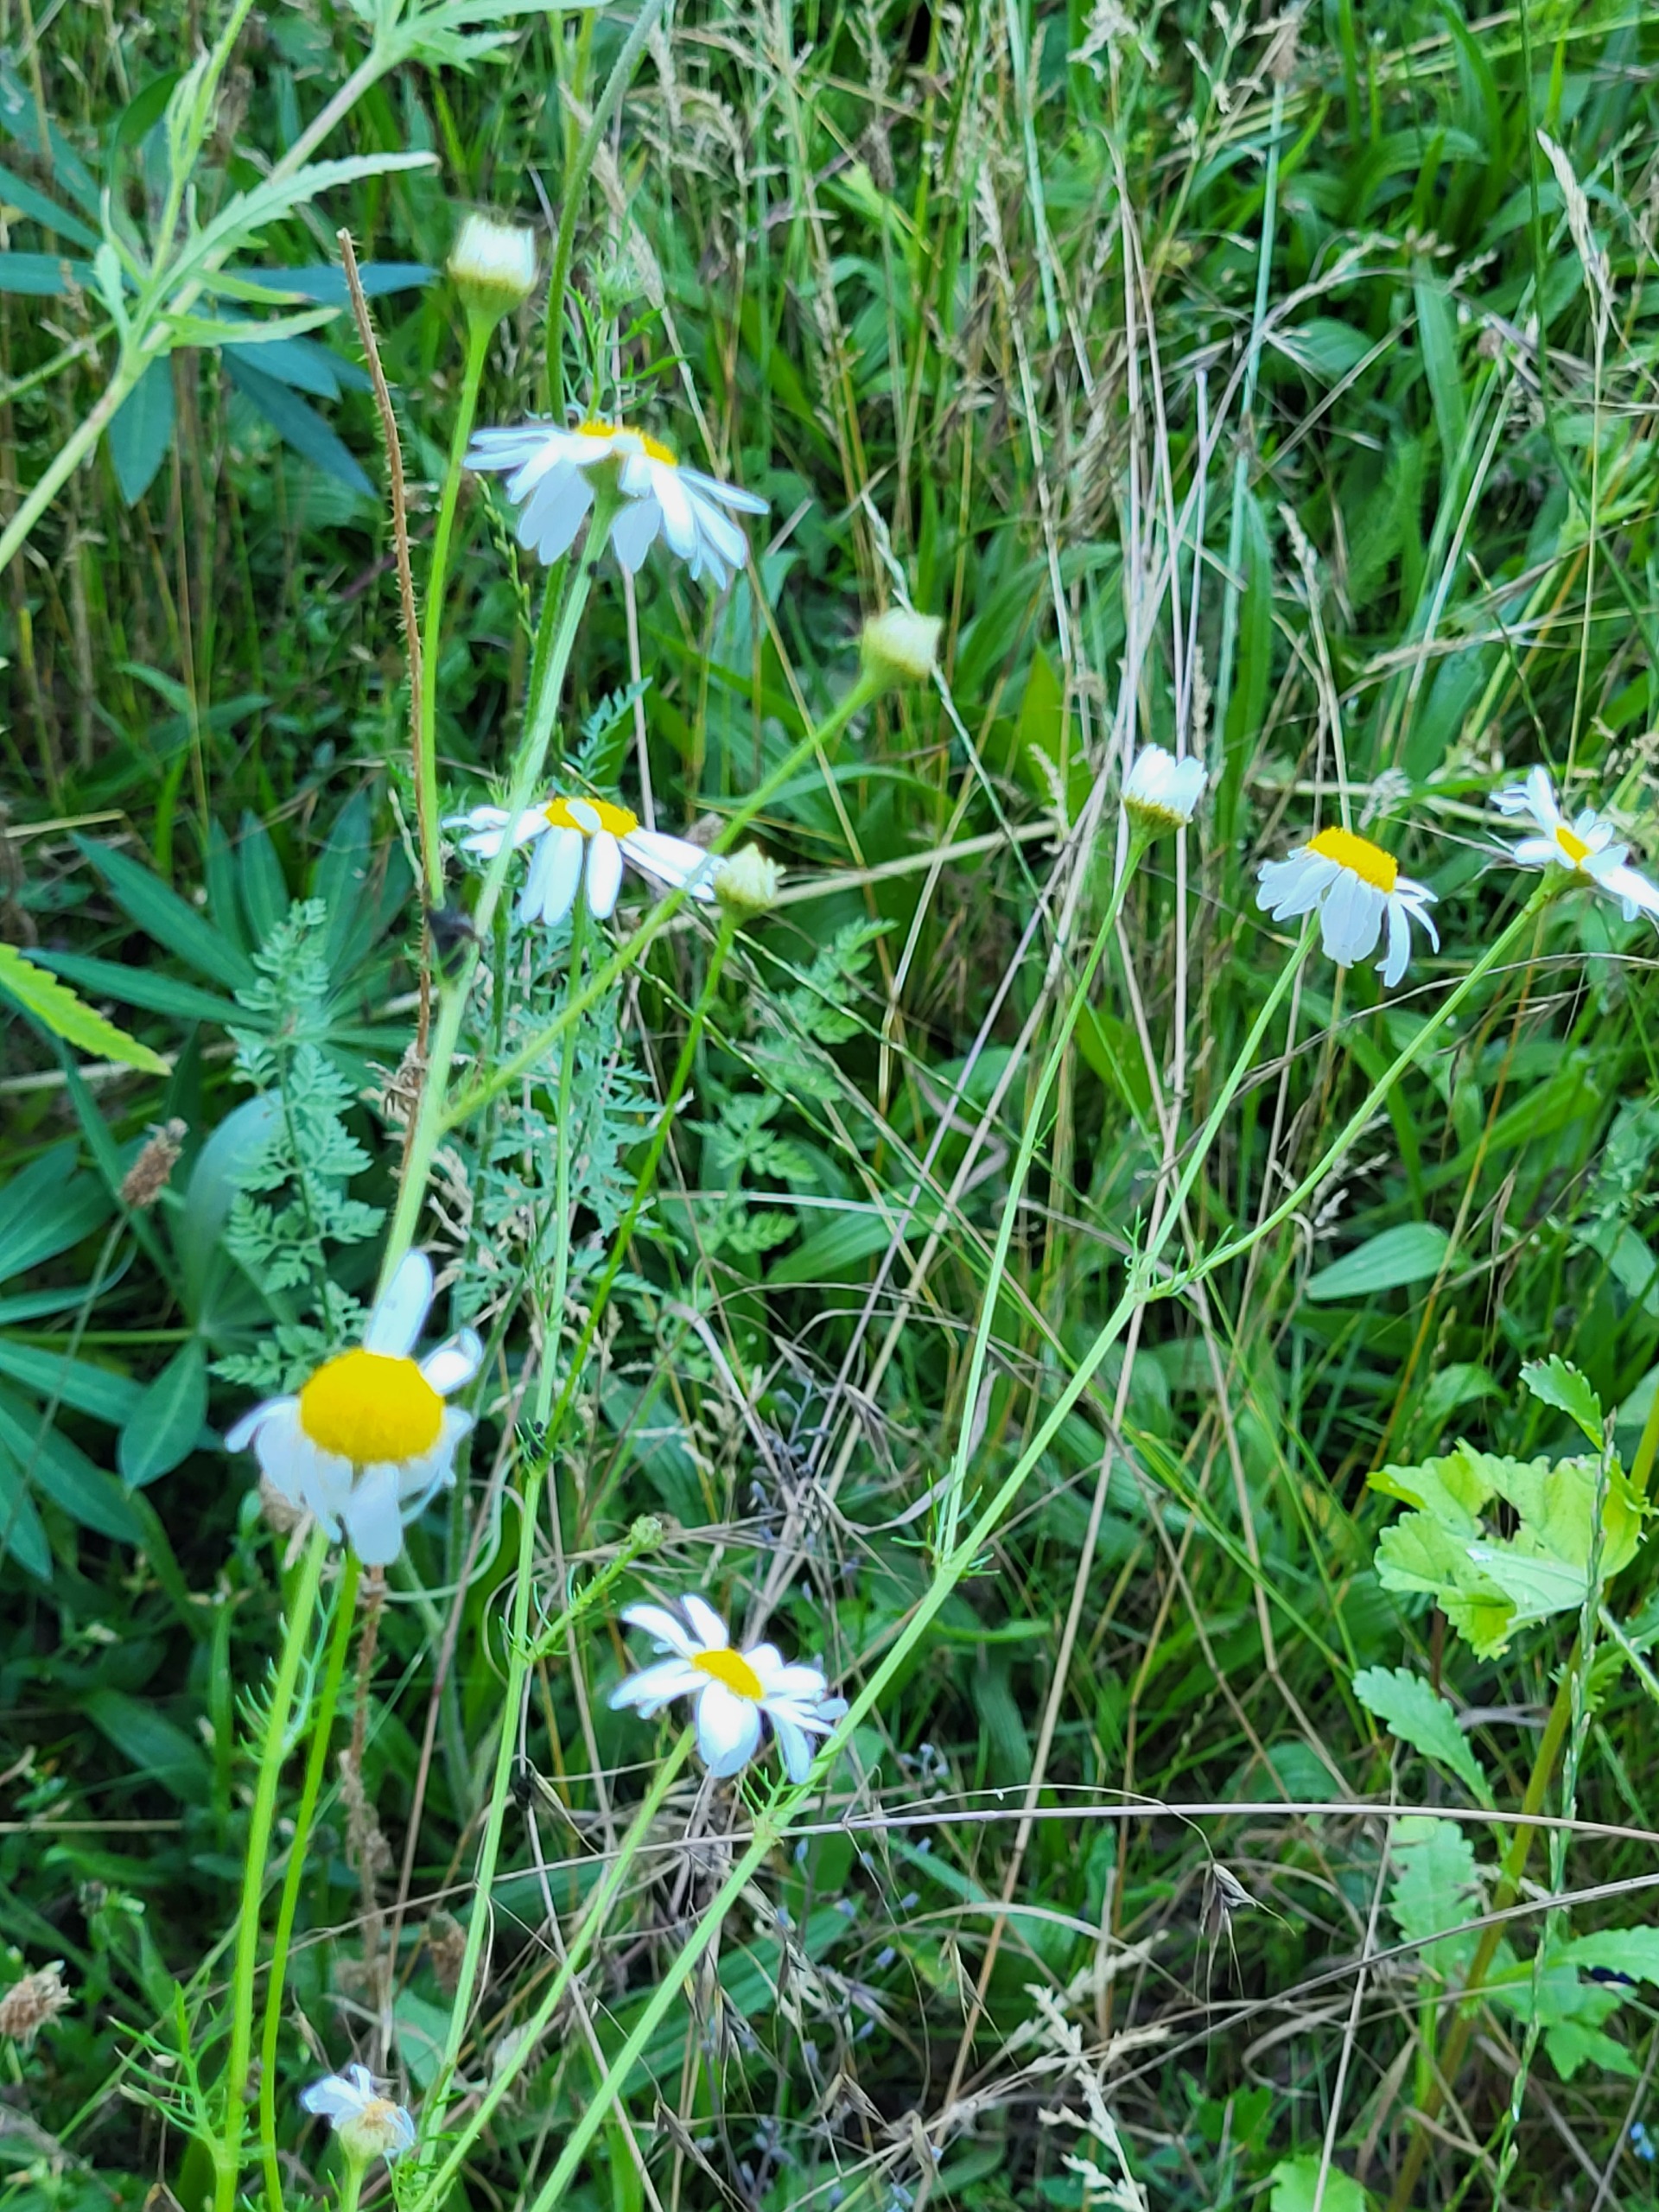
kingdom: Plantae
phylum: Tracheophyta
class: Magnoliopsida
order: Asterales
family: Asteraceae
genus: Tripleurospermum
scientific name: Tripleurospermum inodorum
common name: Lugtløs kamille
